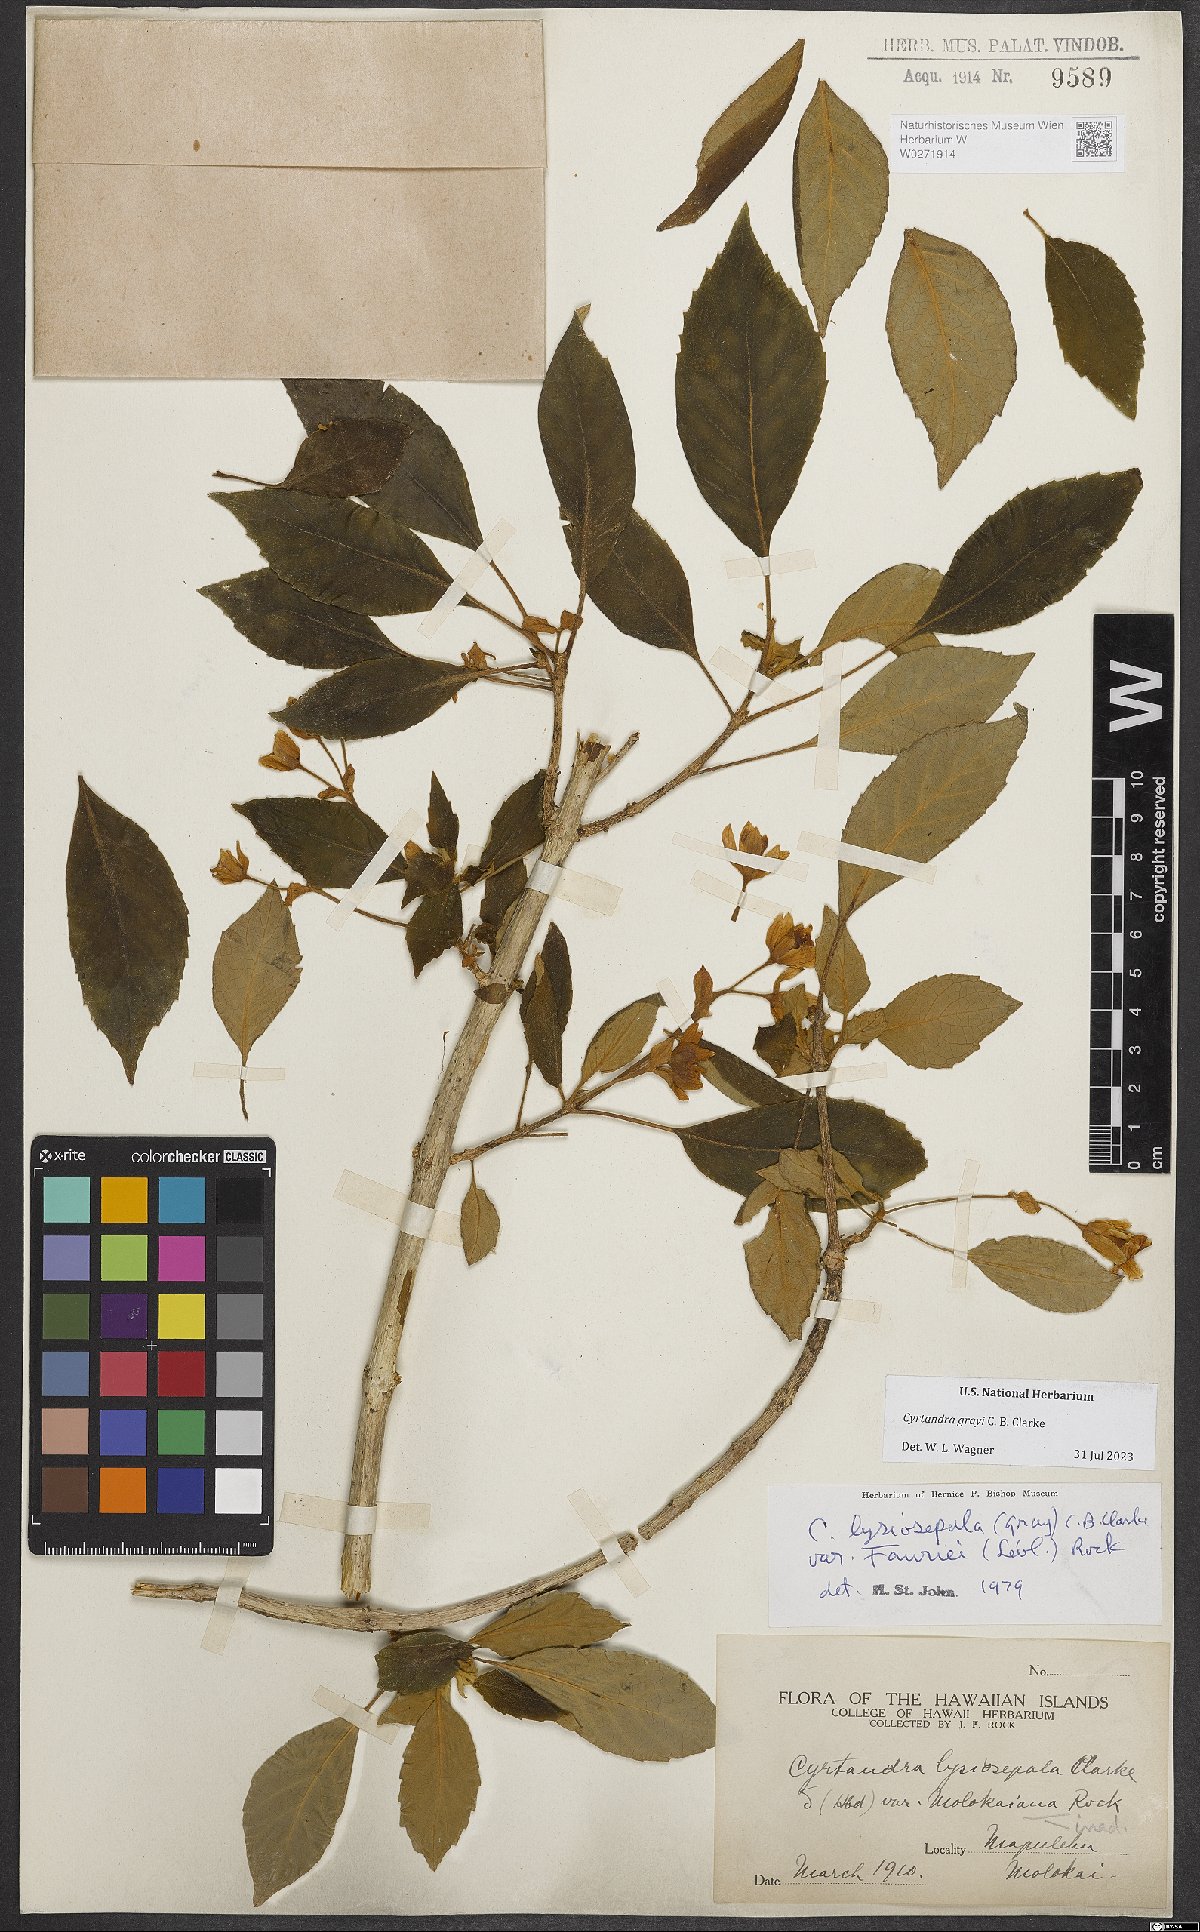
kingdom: Plantae
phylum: Tracheophyta
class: Magnoliopsida
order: Lamiales
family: Gesneriaceae
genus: Cyrtandra
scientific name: Cyrtandra grayi
